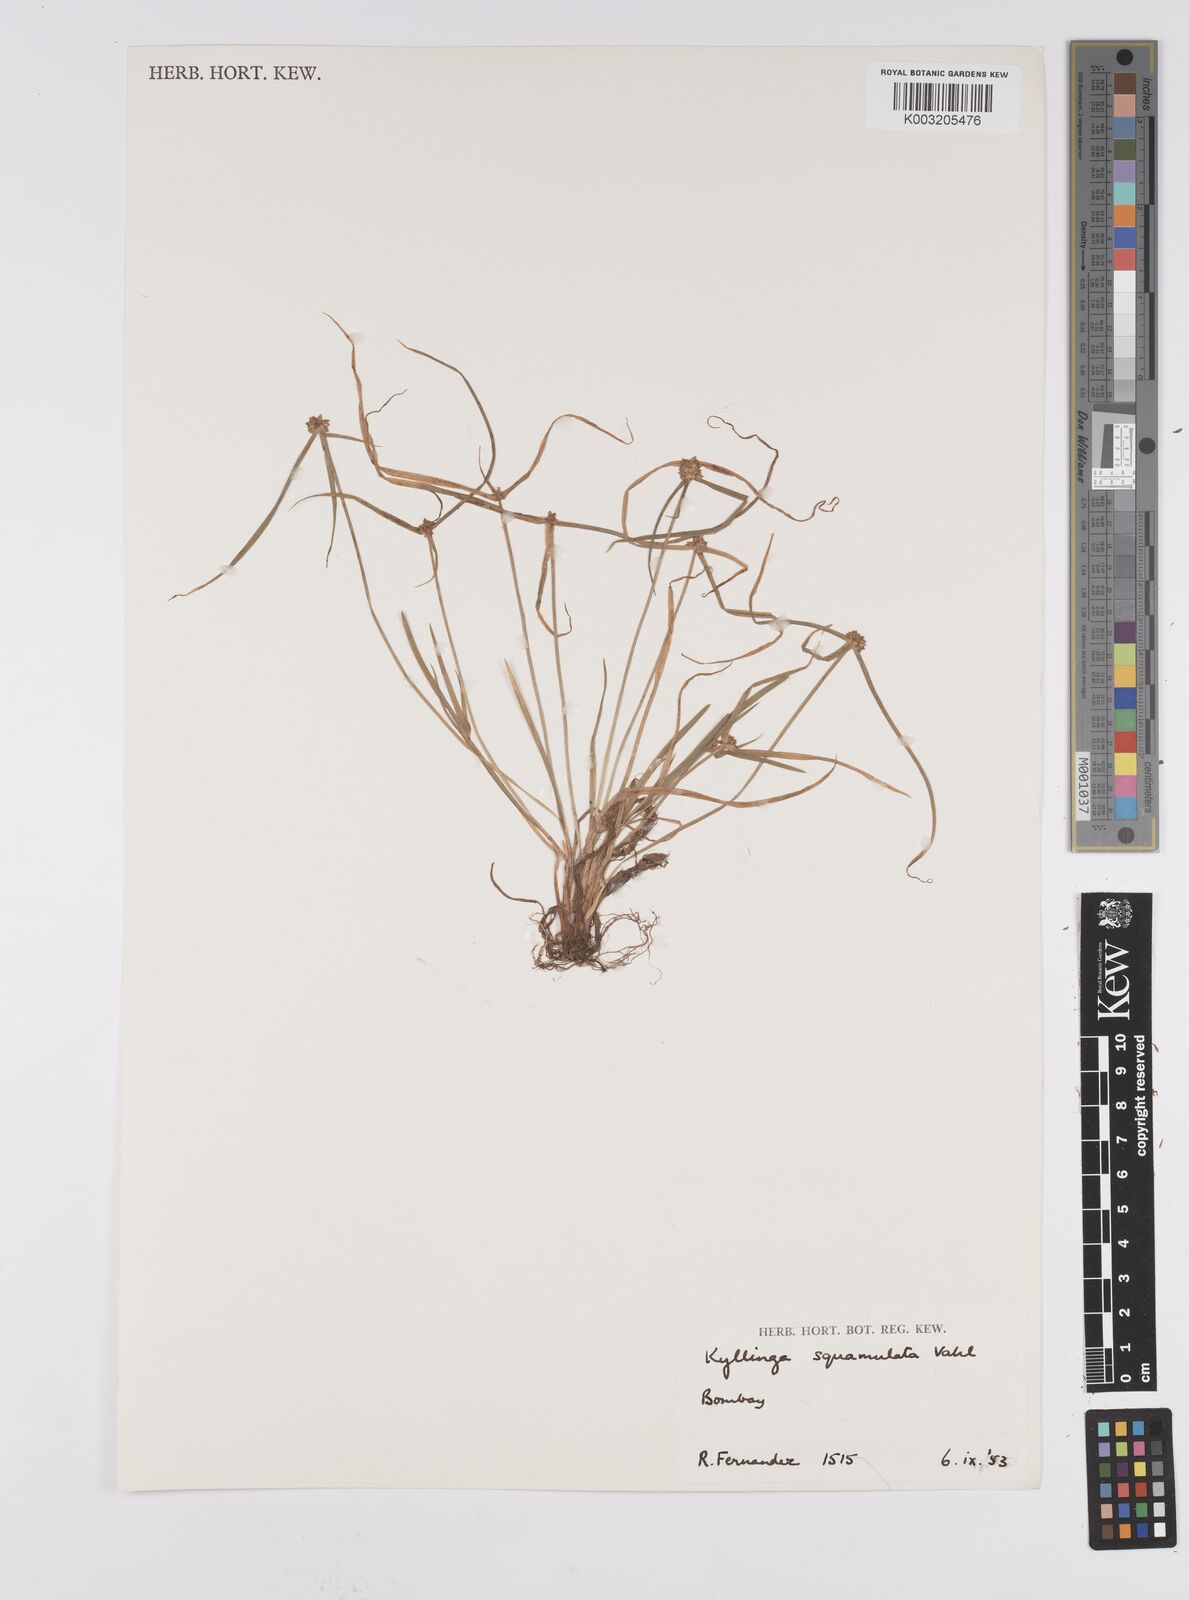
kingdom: Plantae
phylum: Tracheophyta
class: Liliopsida
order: Poales
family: Cyperaceae
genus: Cyperus
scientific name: Cyperus
